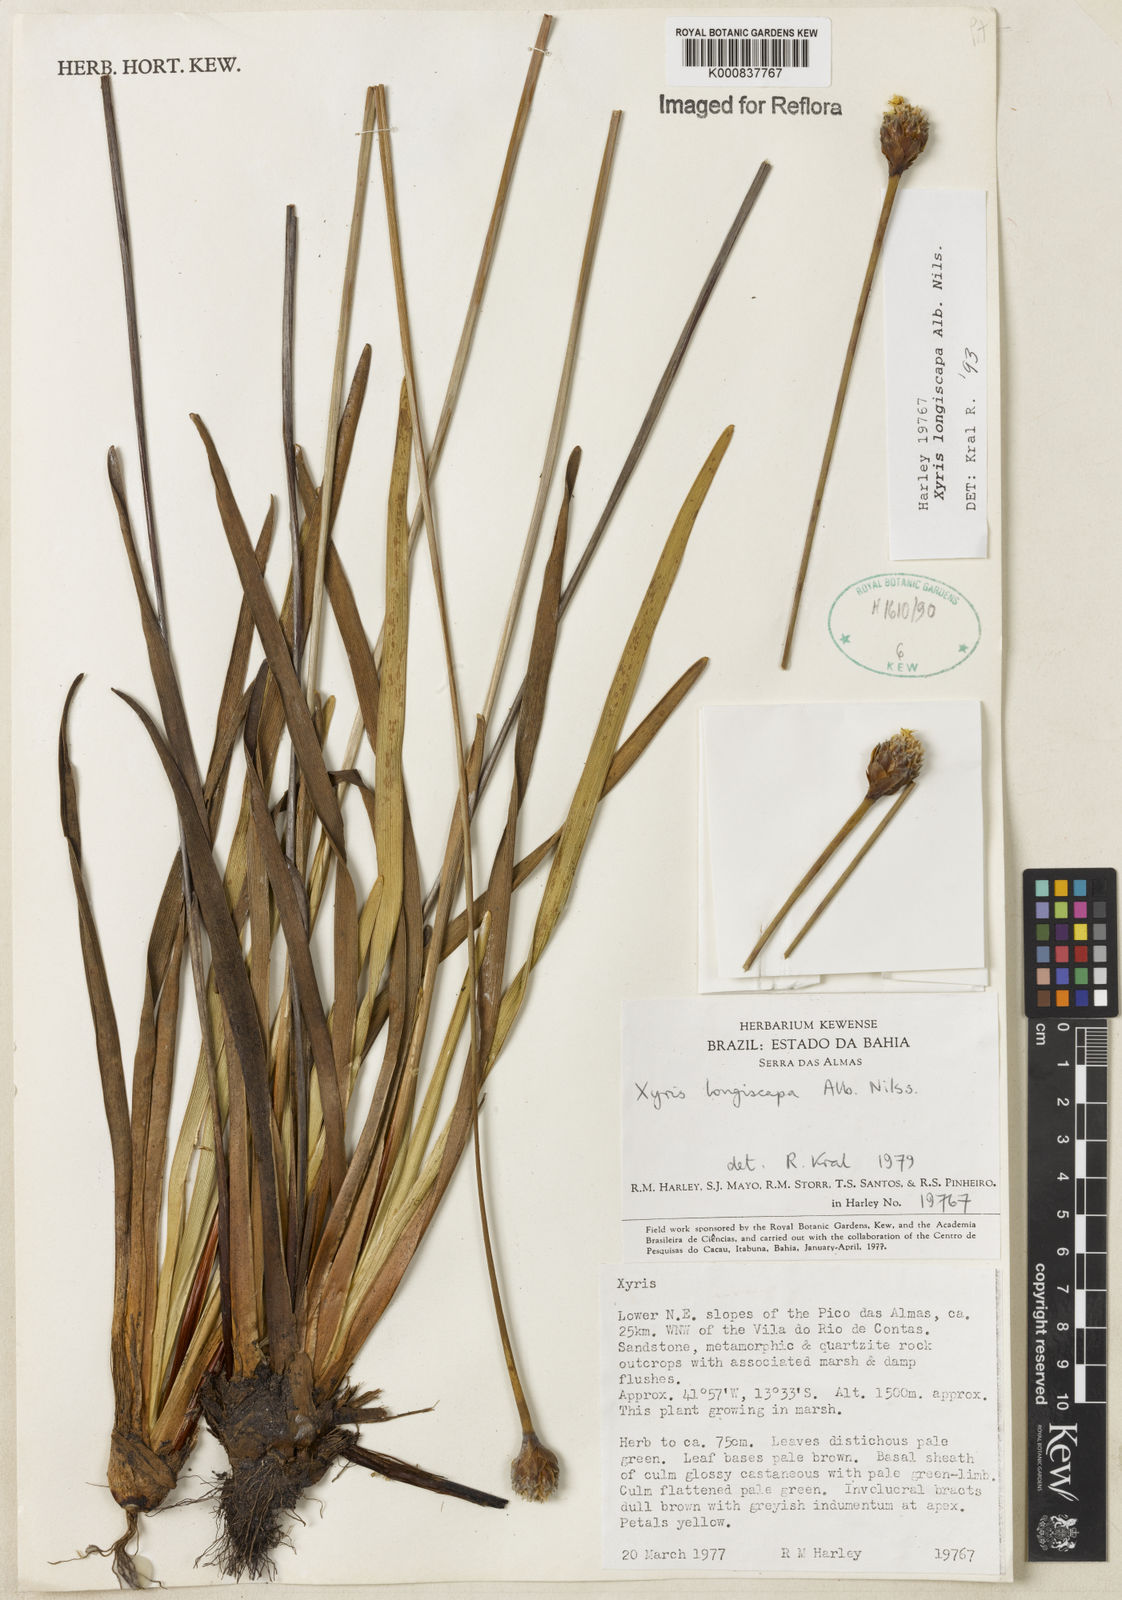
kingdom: Plantae
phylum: Tracheophyta
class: Liliopsida
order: Poales
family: Xyridaceae
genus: Xyris
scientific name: Xyris
